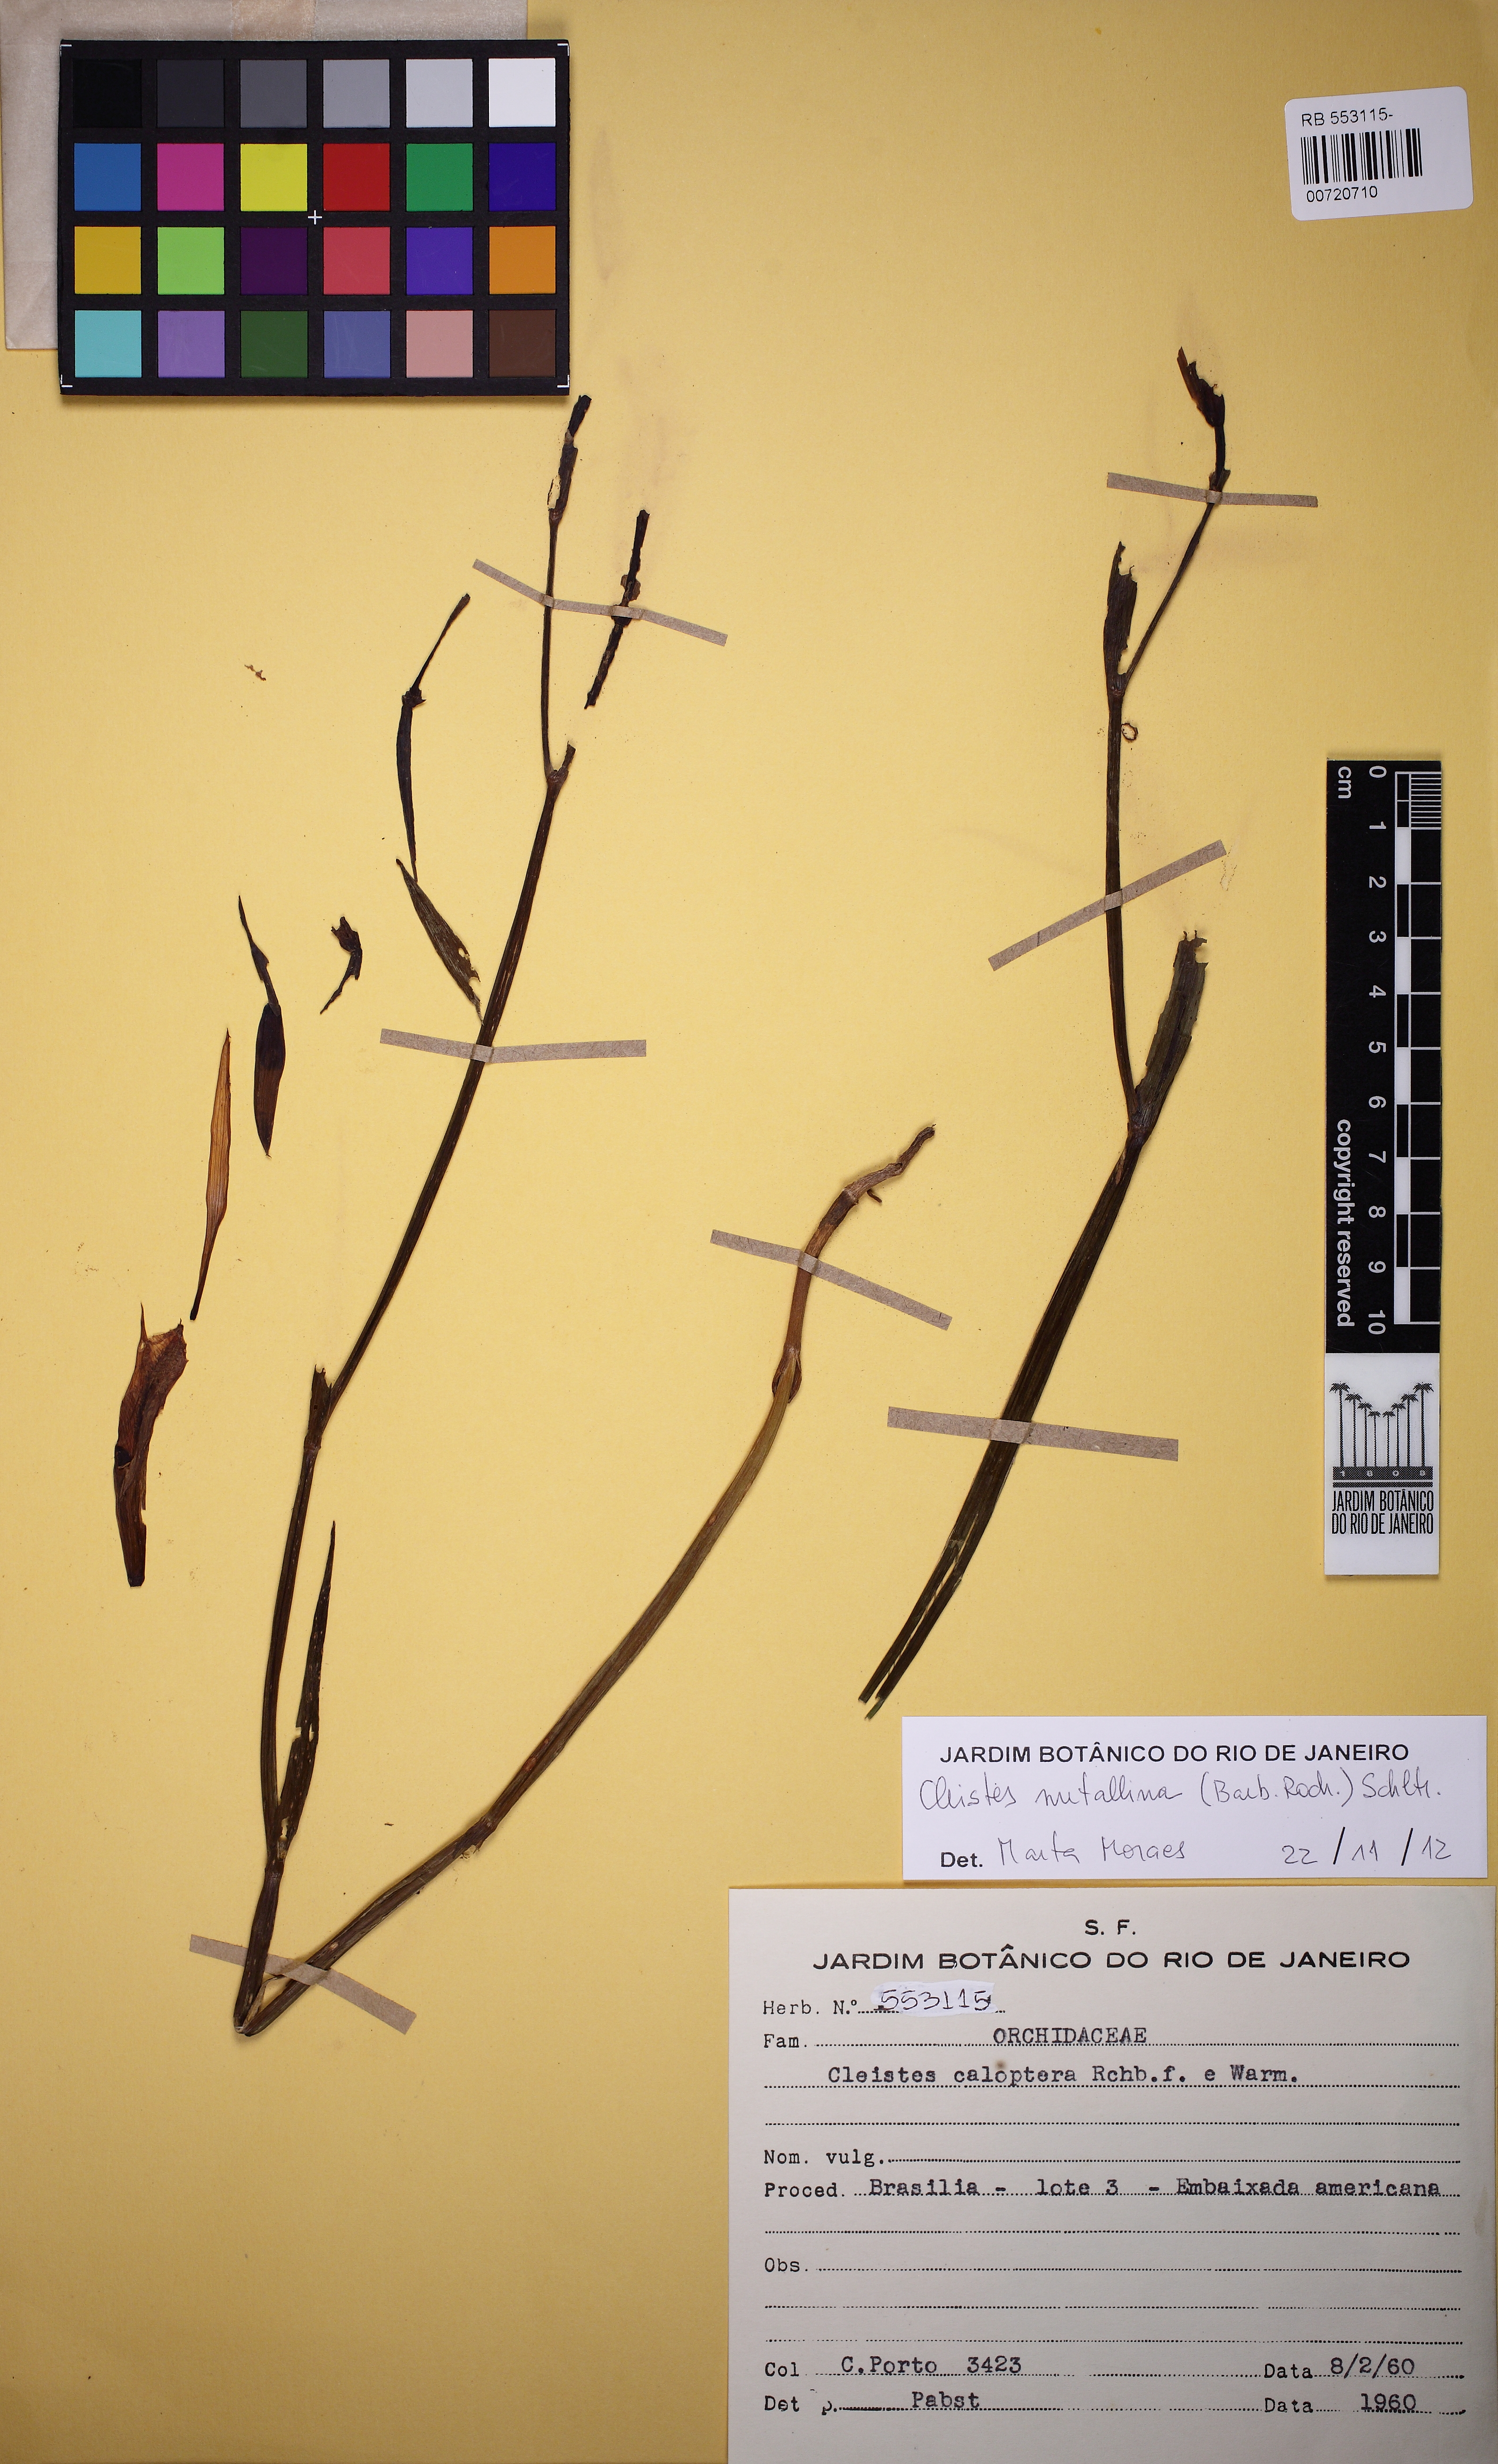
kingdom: Plantae
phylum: Tracheophyta
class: Liliopsida
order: Asparagales
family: Orchidaceae
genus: Cleistes
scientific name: Cleistes speciosa
